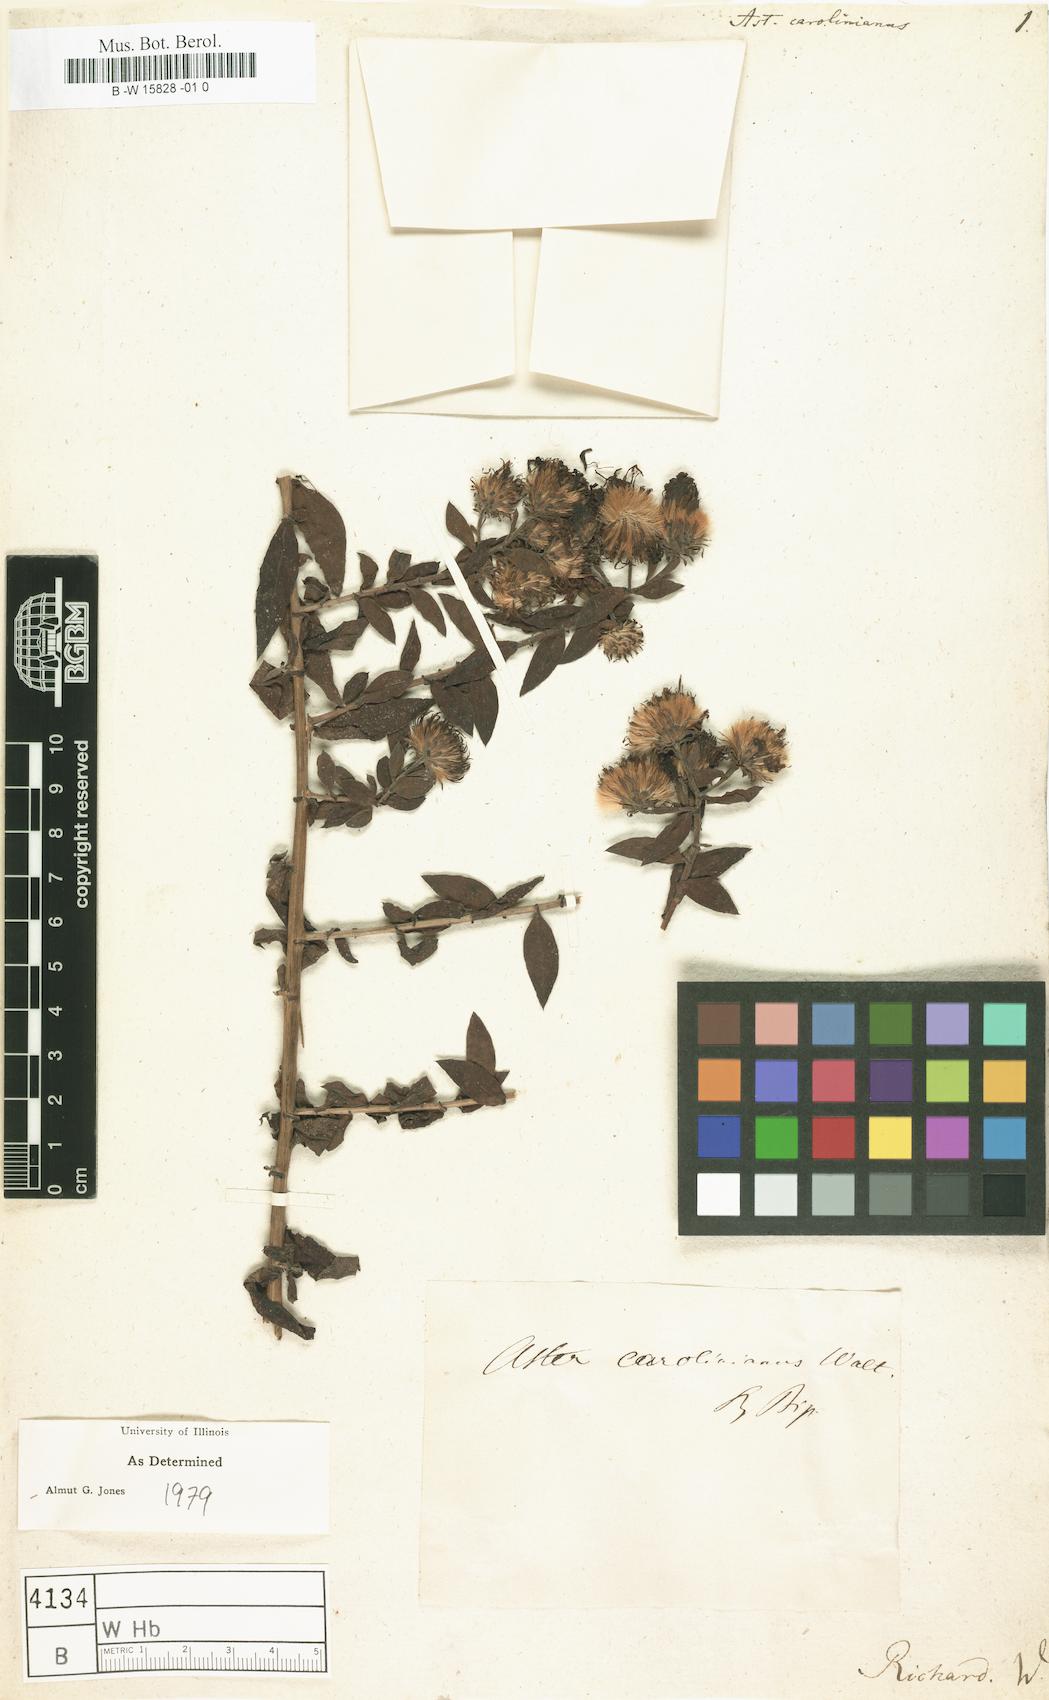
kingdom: Plantae
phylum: Tracheophyta
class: Magnoliopsida
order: Asterales
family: Asteraceae
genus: Ampelaster
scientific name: Ampelaster carolinianus
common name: Climbing aster
